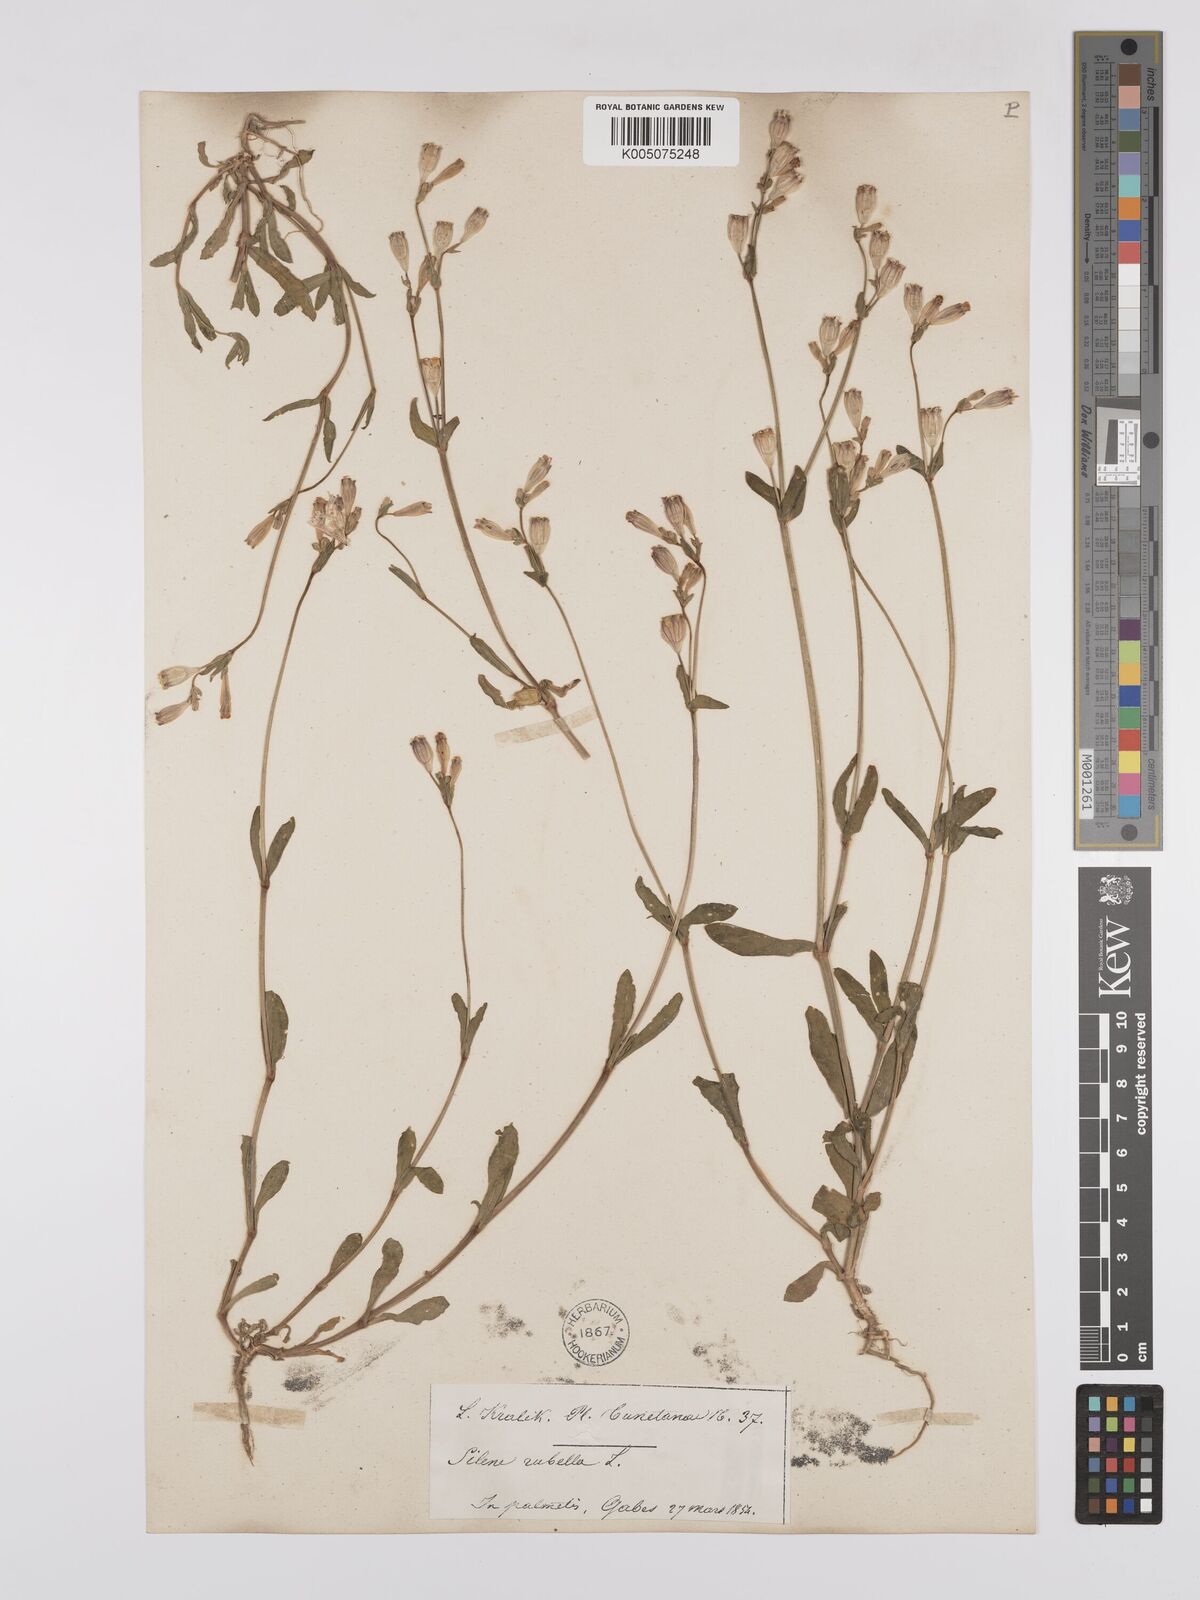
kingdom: Plantae
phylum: Tracheophyta
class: Magnoliopsida
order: Caryophyllales
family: Caryophyllaceae
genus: Silene
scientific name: Silene rubella
